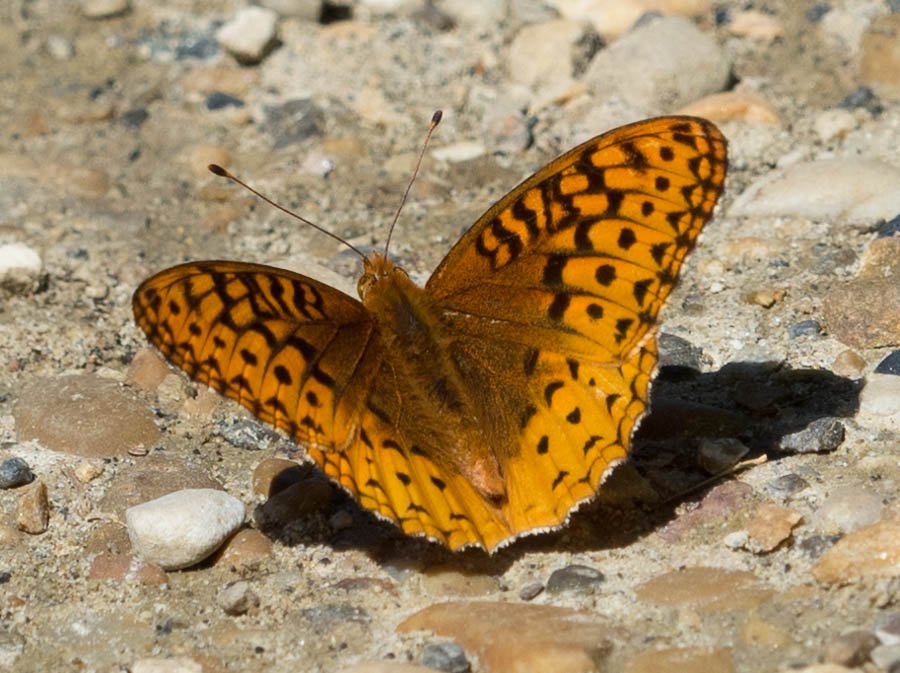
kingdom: Animalia
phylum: Arthropoda
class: Insecta
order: Lepidoptera
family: Nymphalidae
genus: Speyeria
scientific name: Speyeria cybele
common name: Great Spangled Fritillary
